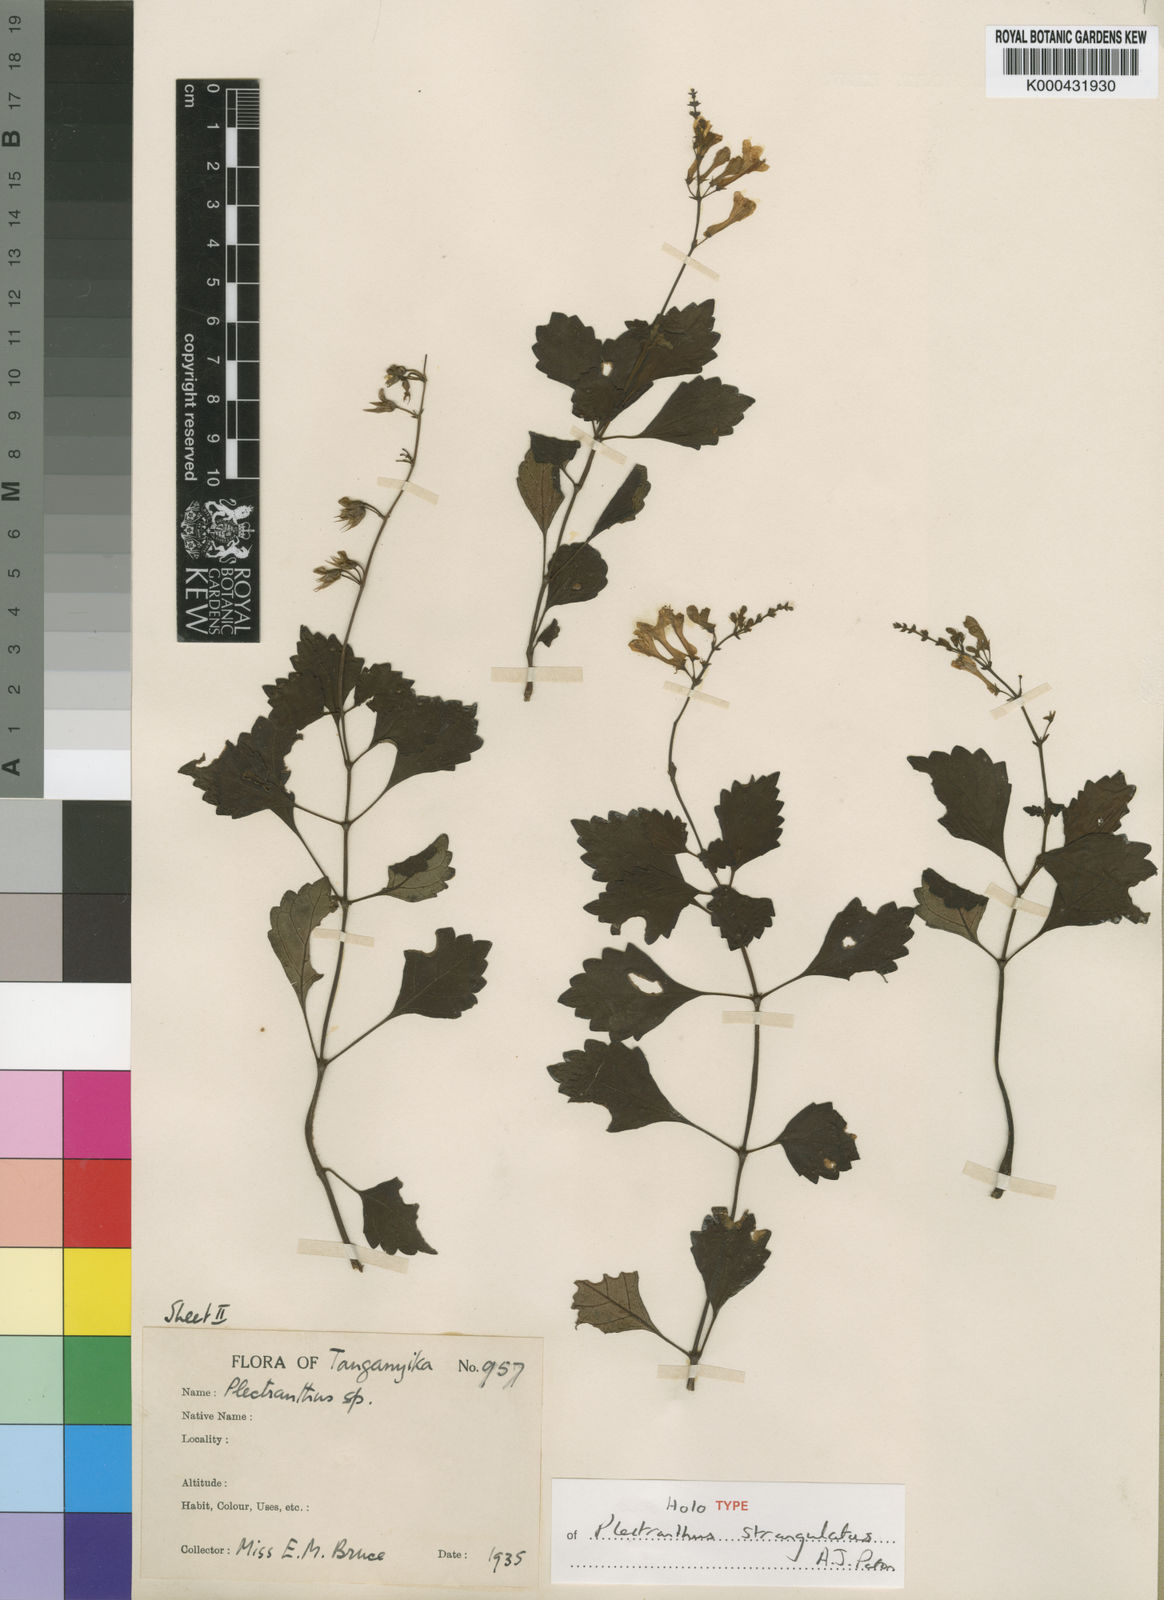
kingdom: Plantae
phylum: Tracheophyta
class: Magnoliopsida
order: Lamiales
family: Lamiaceae
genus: Plectranthus
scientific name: Plectranthus strangulatus
